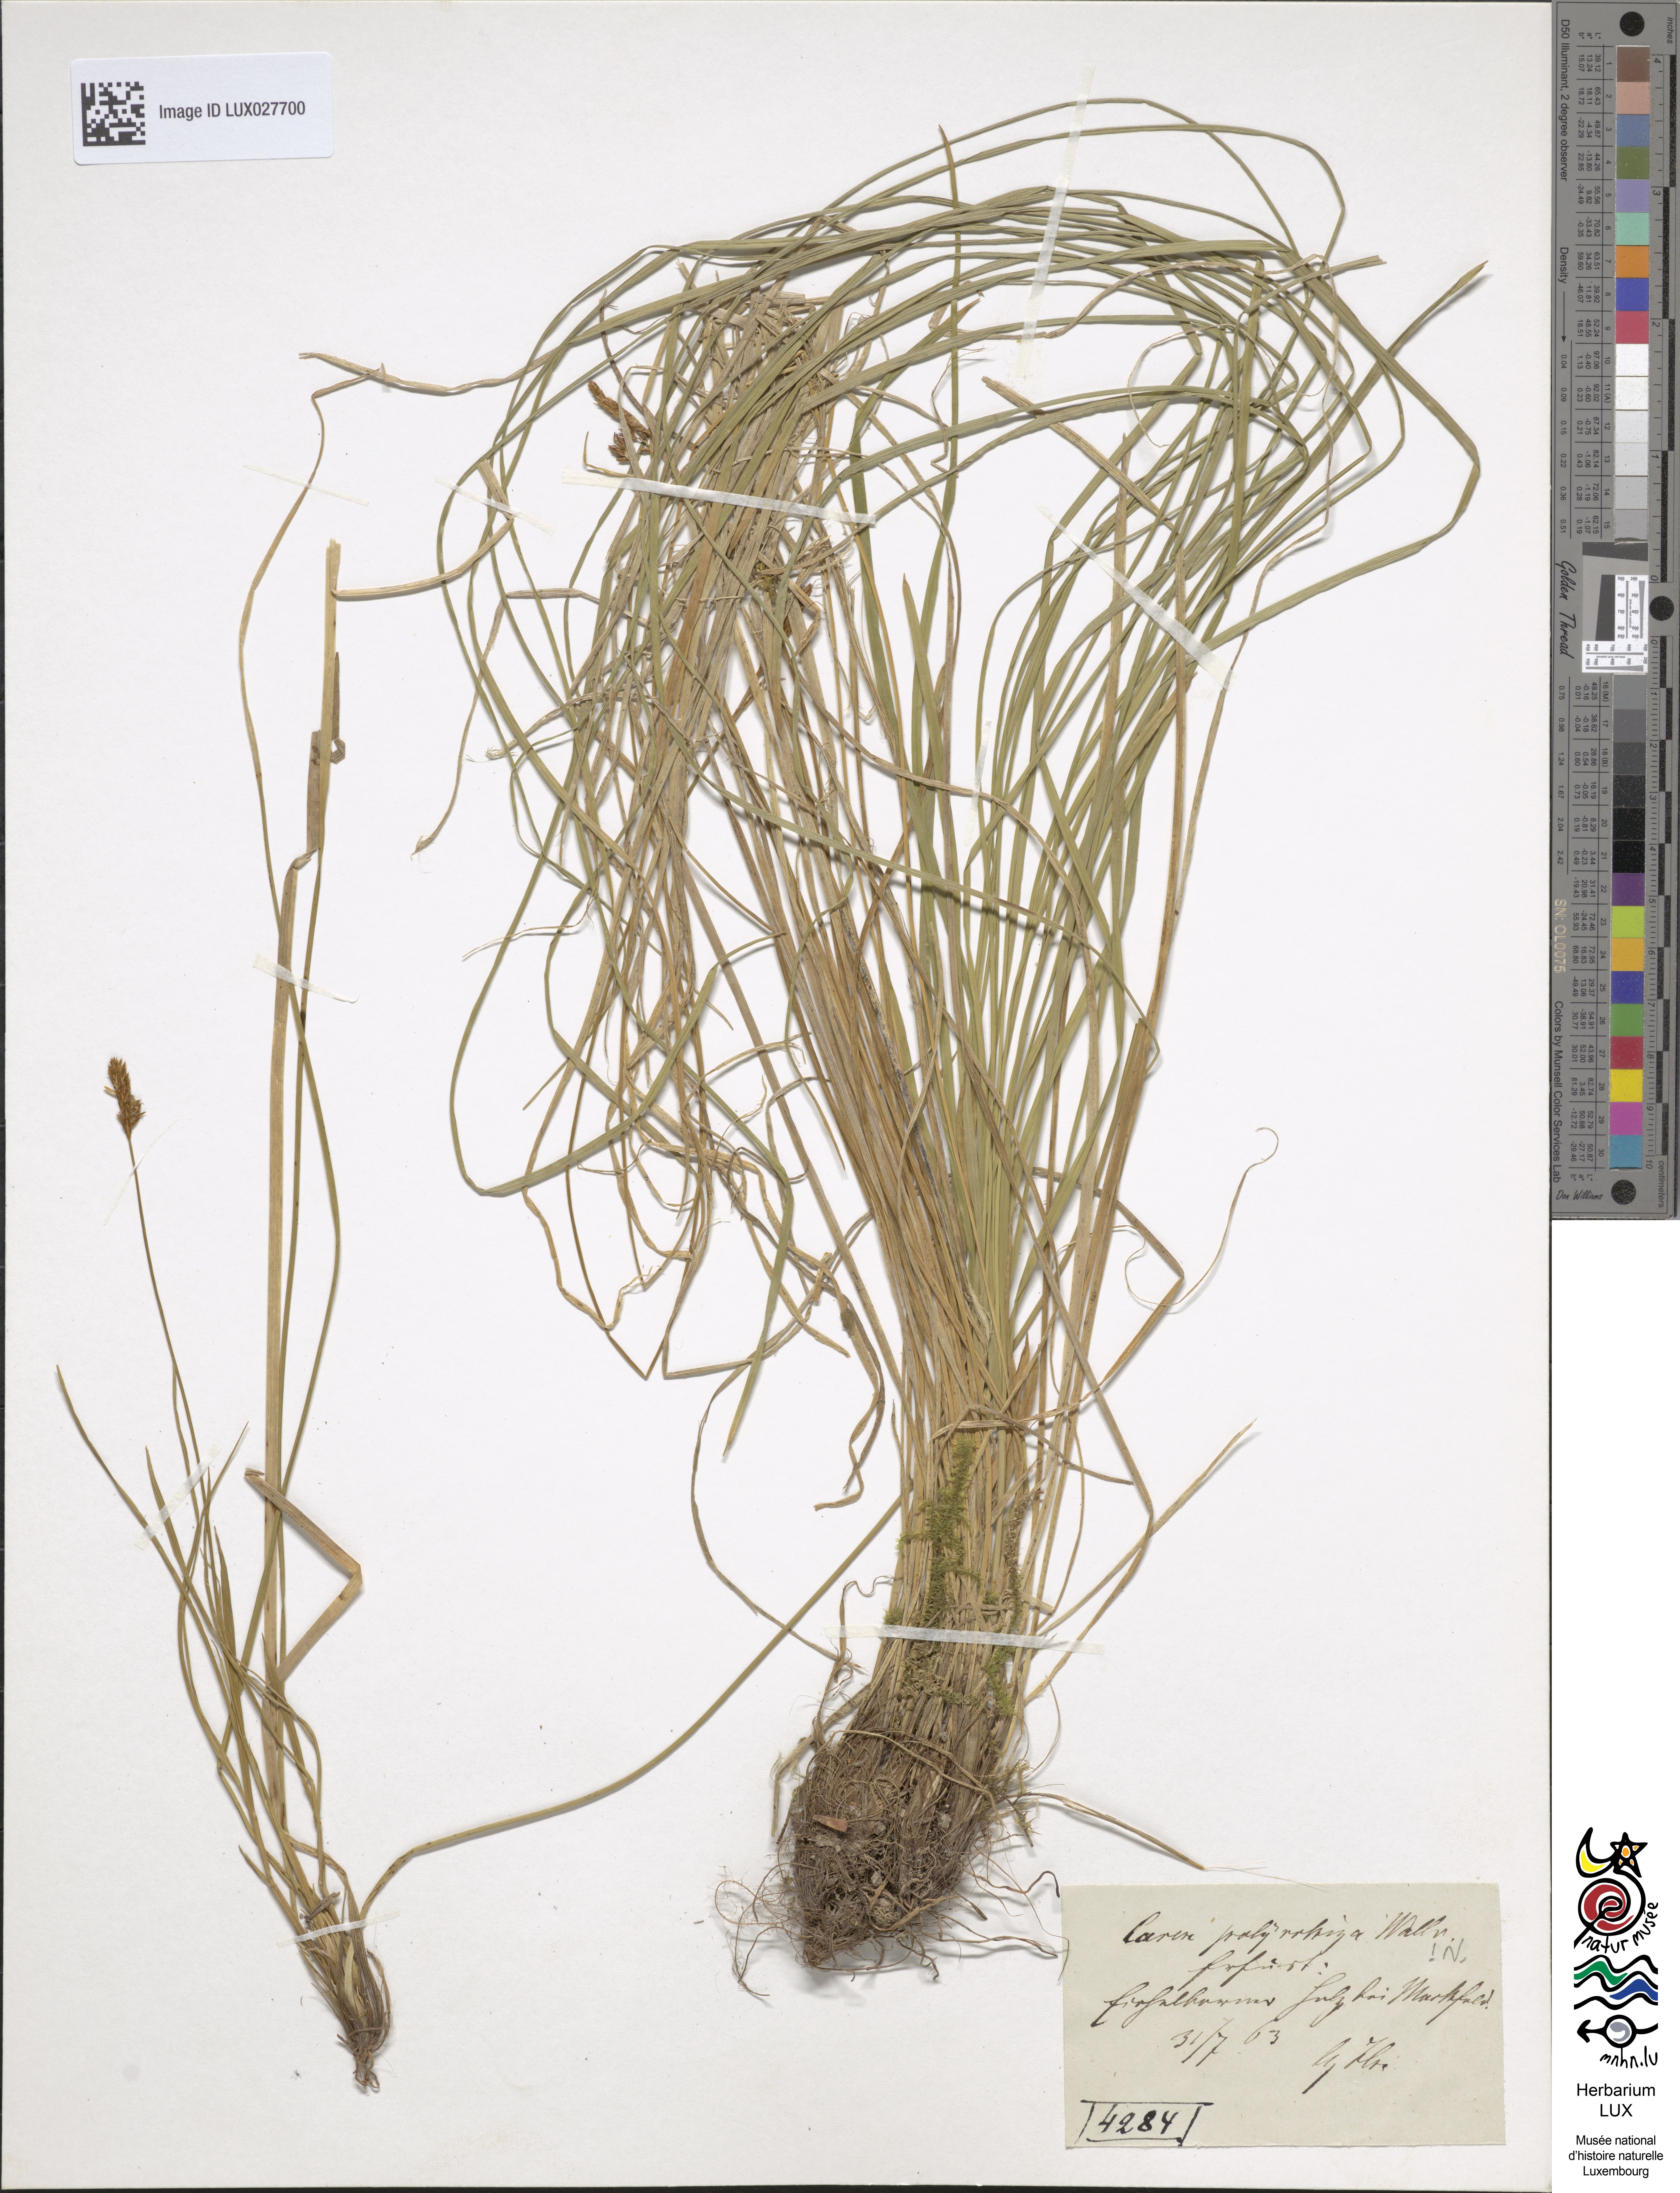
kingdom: Plantae
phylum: Tracheophyta
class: Liliopsida
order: Poales
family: Cyperaceae
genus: Carex
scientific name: Carex umbrosa
